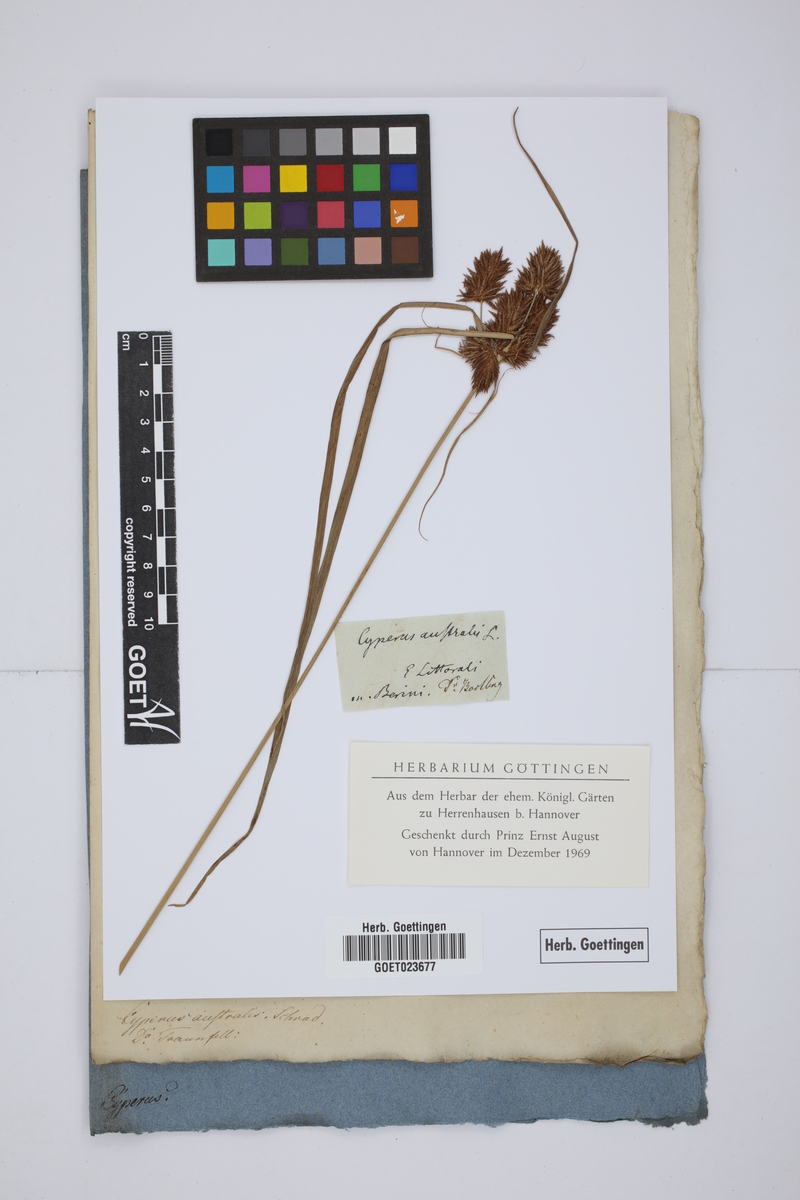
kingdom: Plantae
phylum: Tracheophyta
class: Liliopsida
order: Poales
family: Cyperaceae
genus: Cyperus
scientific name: Cyperus glomeratus
